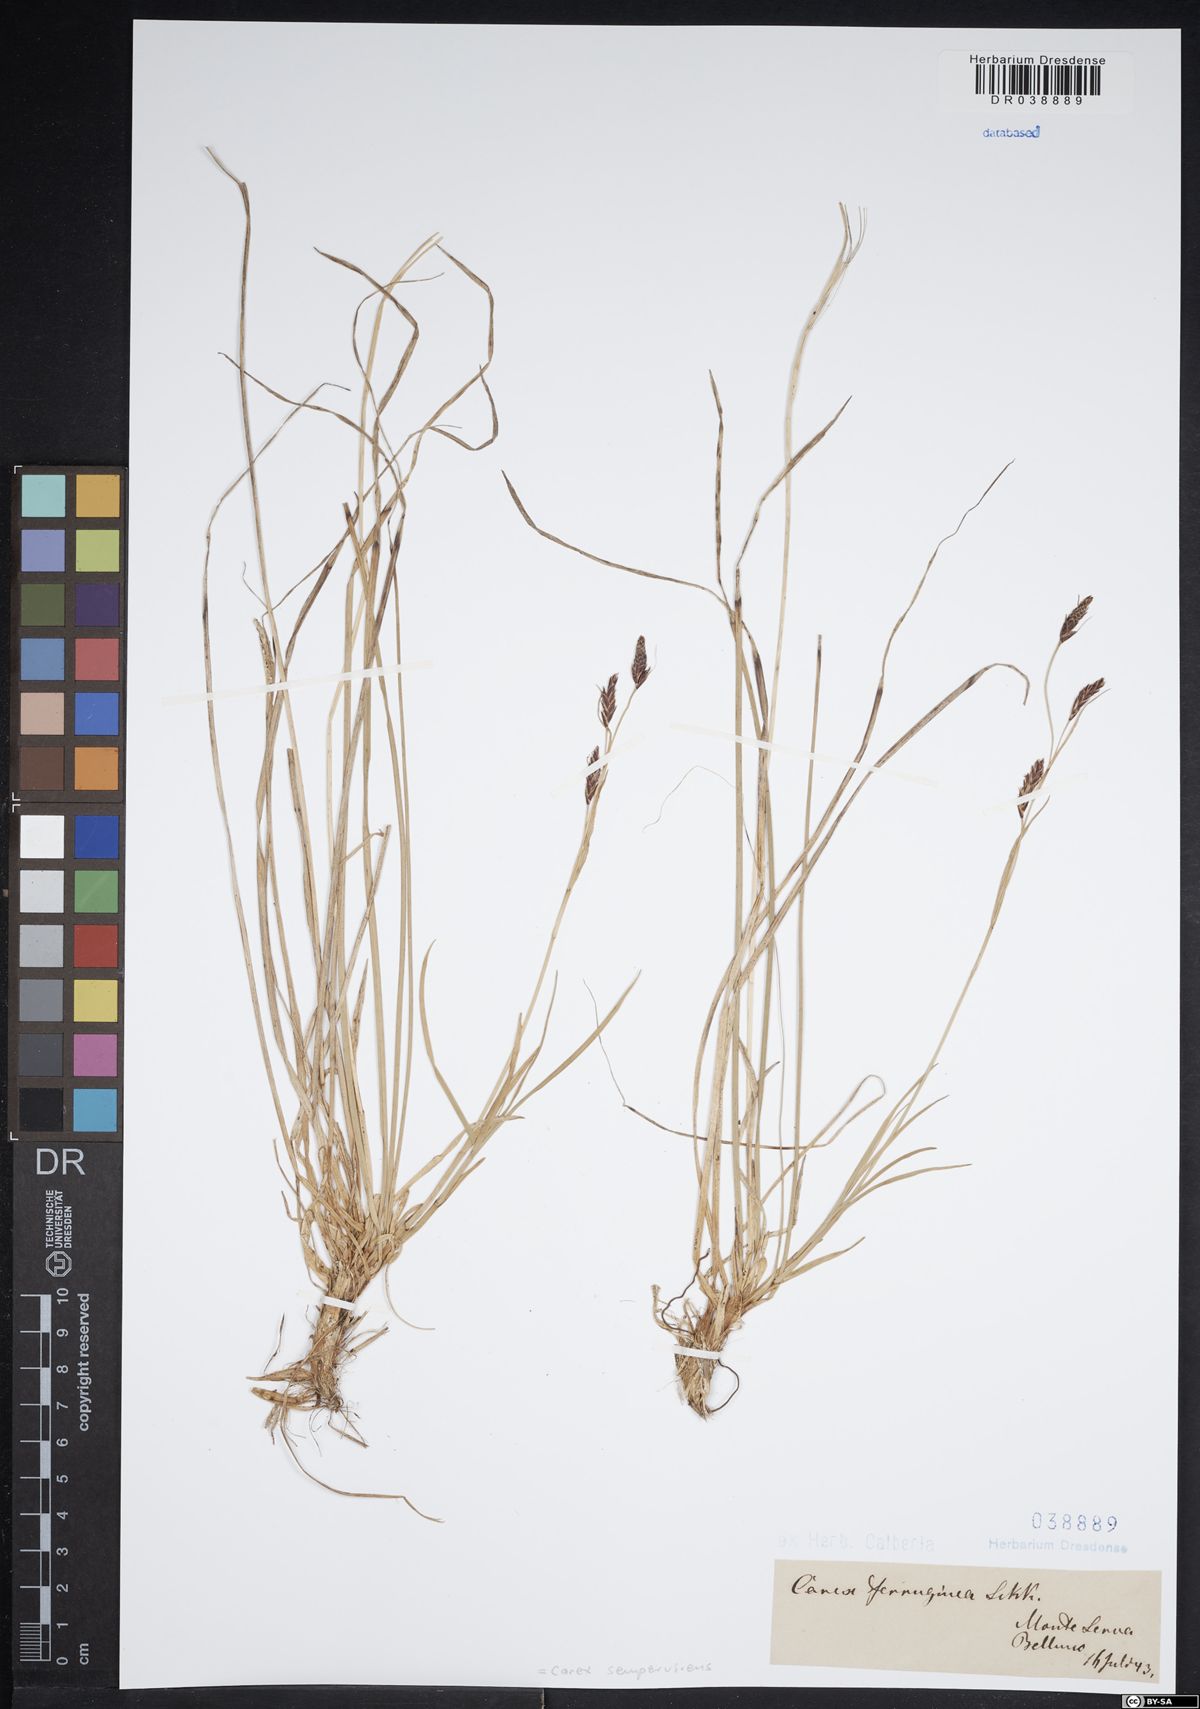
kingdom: Plantae
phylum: Tracheophyta
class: Liliopsida
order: Poales
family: Cyperaceae
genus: Carex
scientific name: Carex sempervirens
